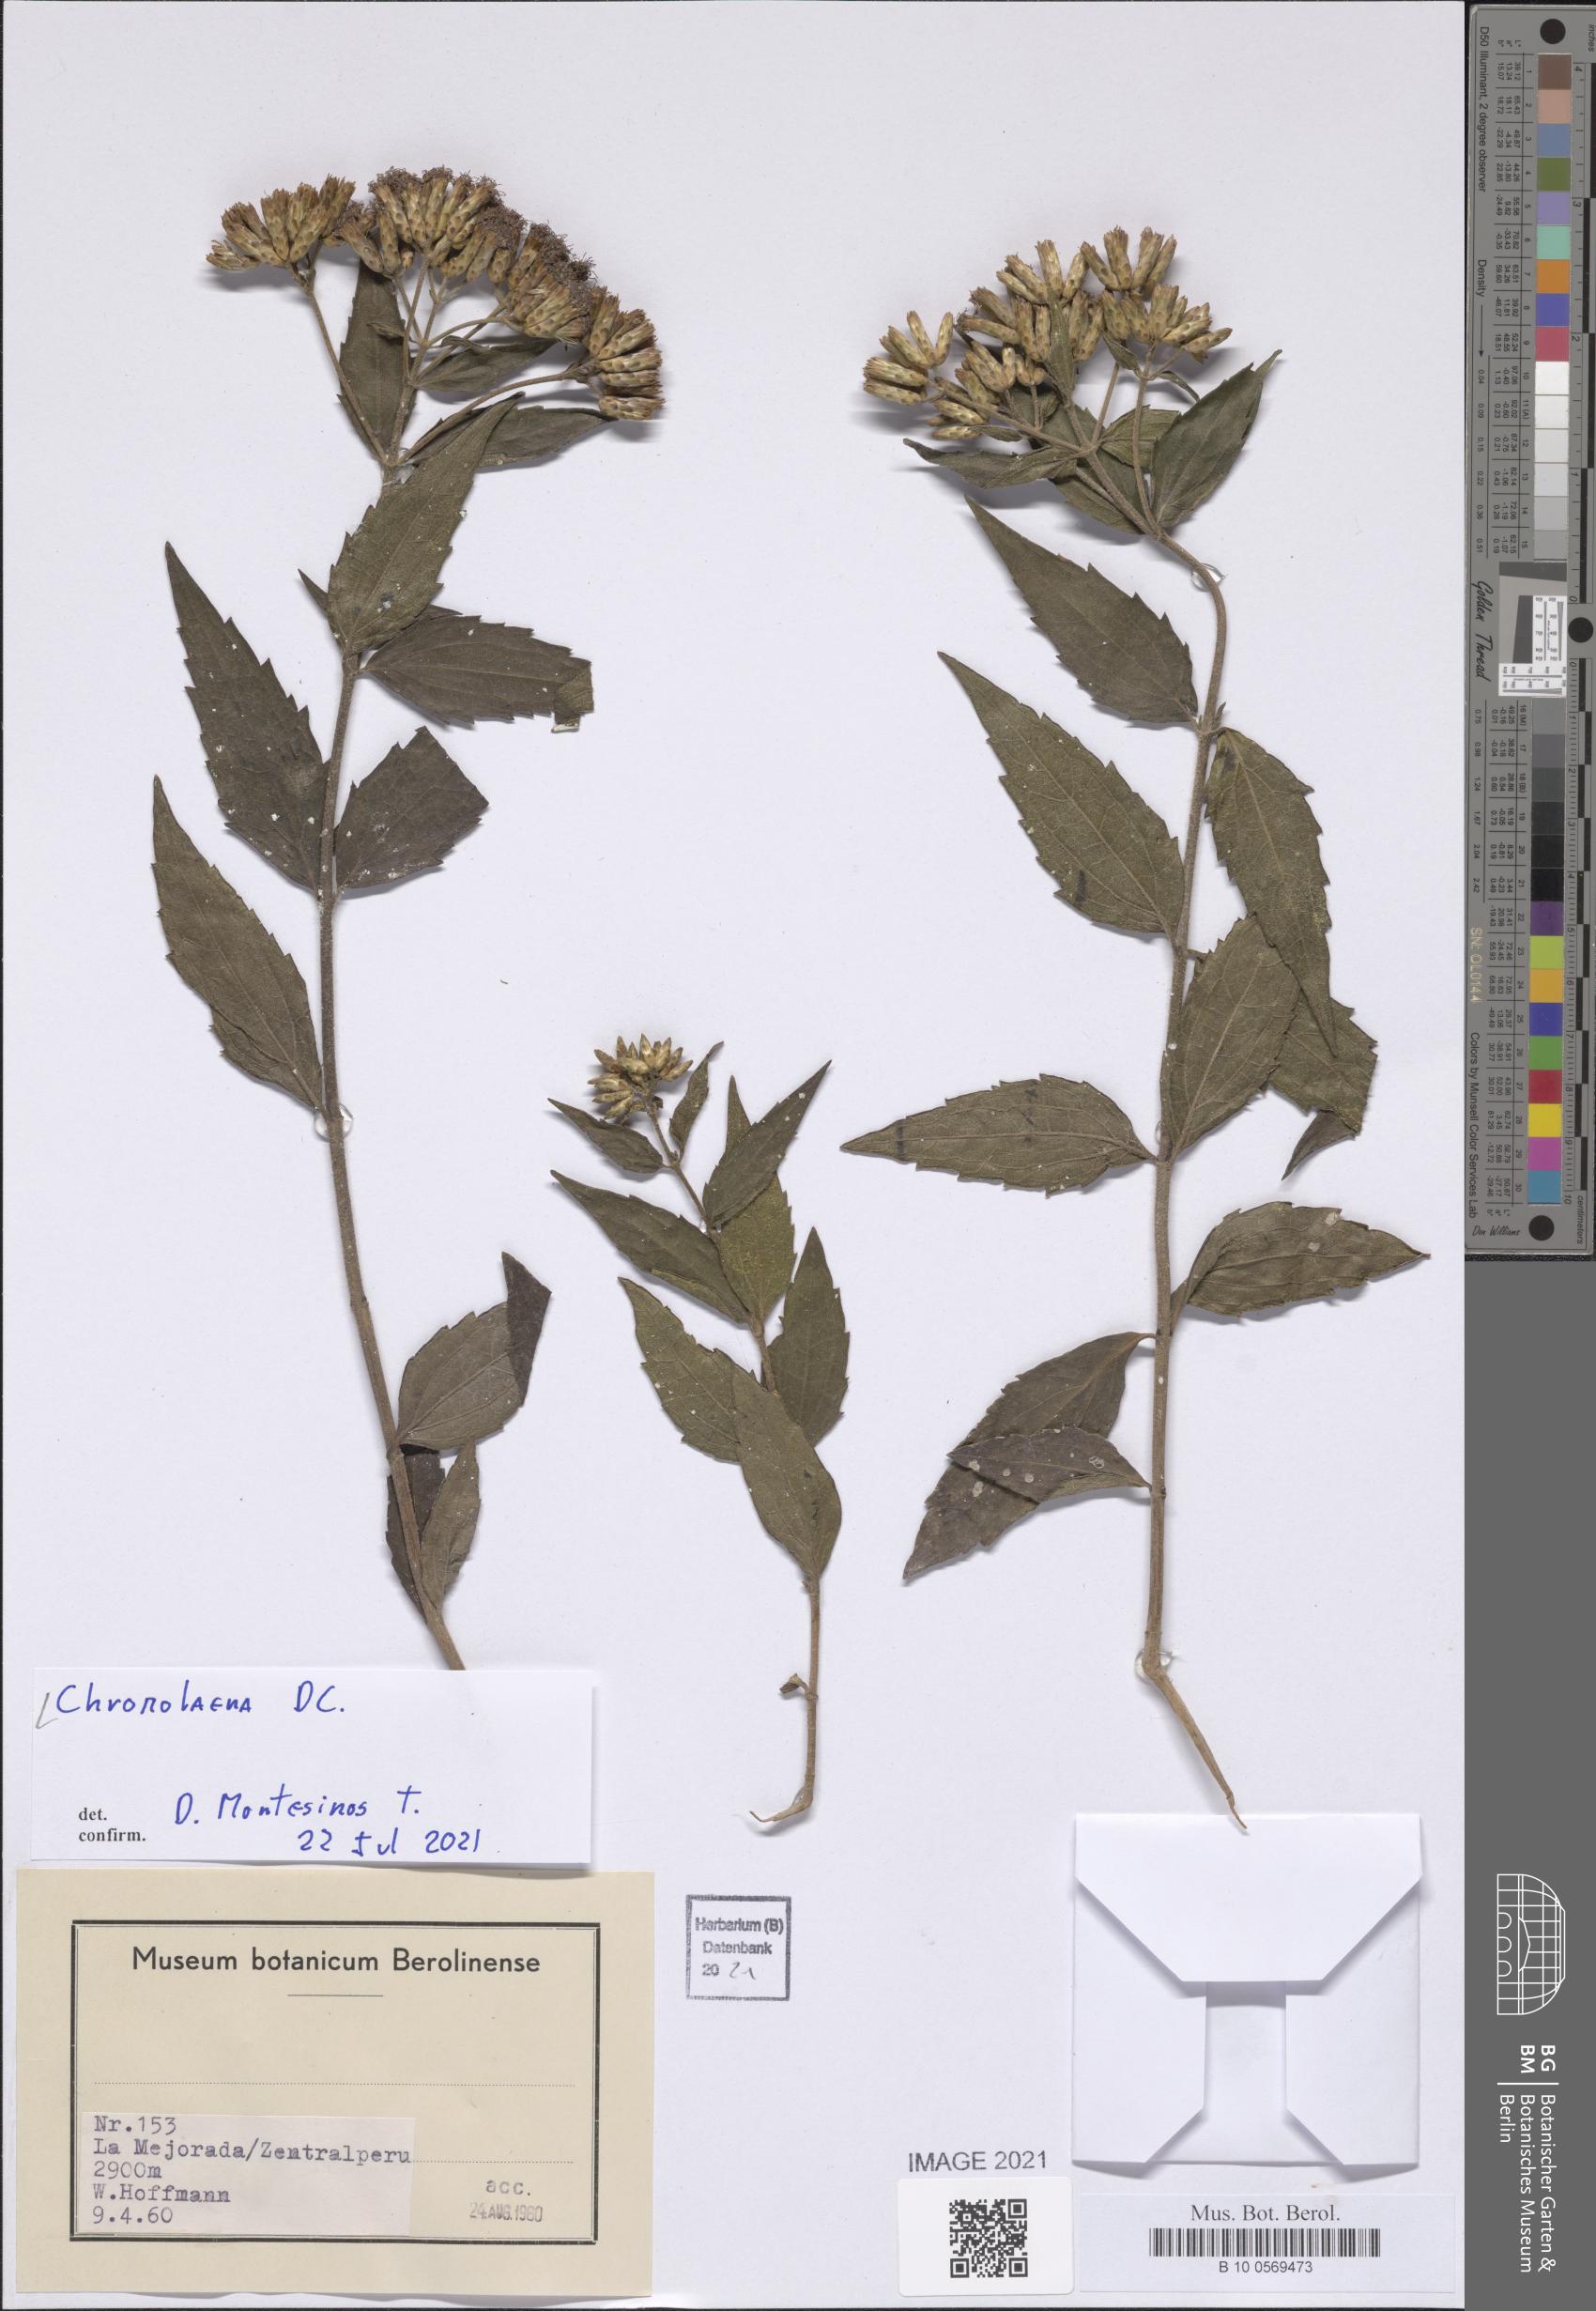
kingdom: Plantae
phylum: Tracheophyta
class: Magnoliopsida
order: Asterales
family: Asteraceae
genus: Chromolaena
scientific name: Chromolaena
